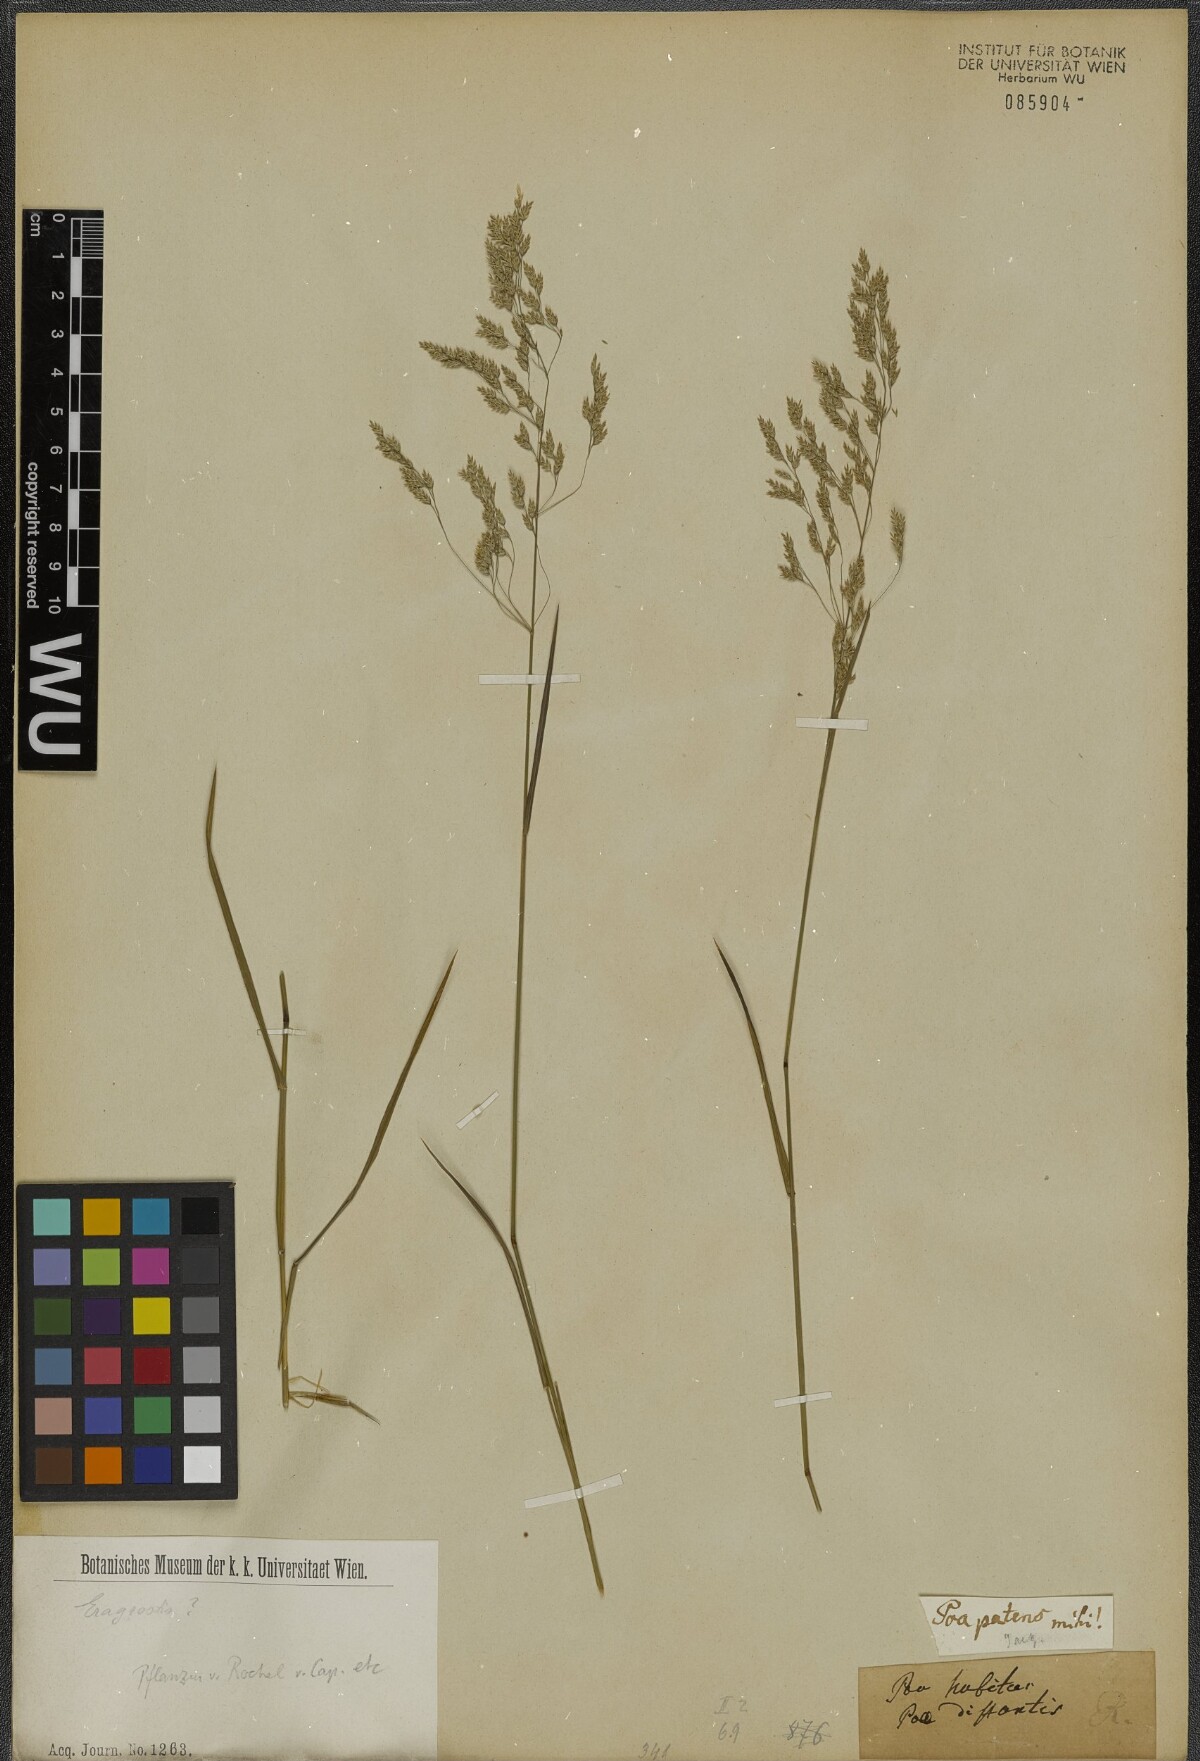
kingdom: Plantae
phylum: Tracheophyta
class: Liliopsida
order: Poales
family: Poaceae
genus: Eragrostis
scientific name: Eragrostis
